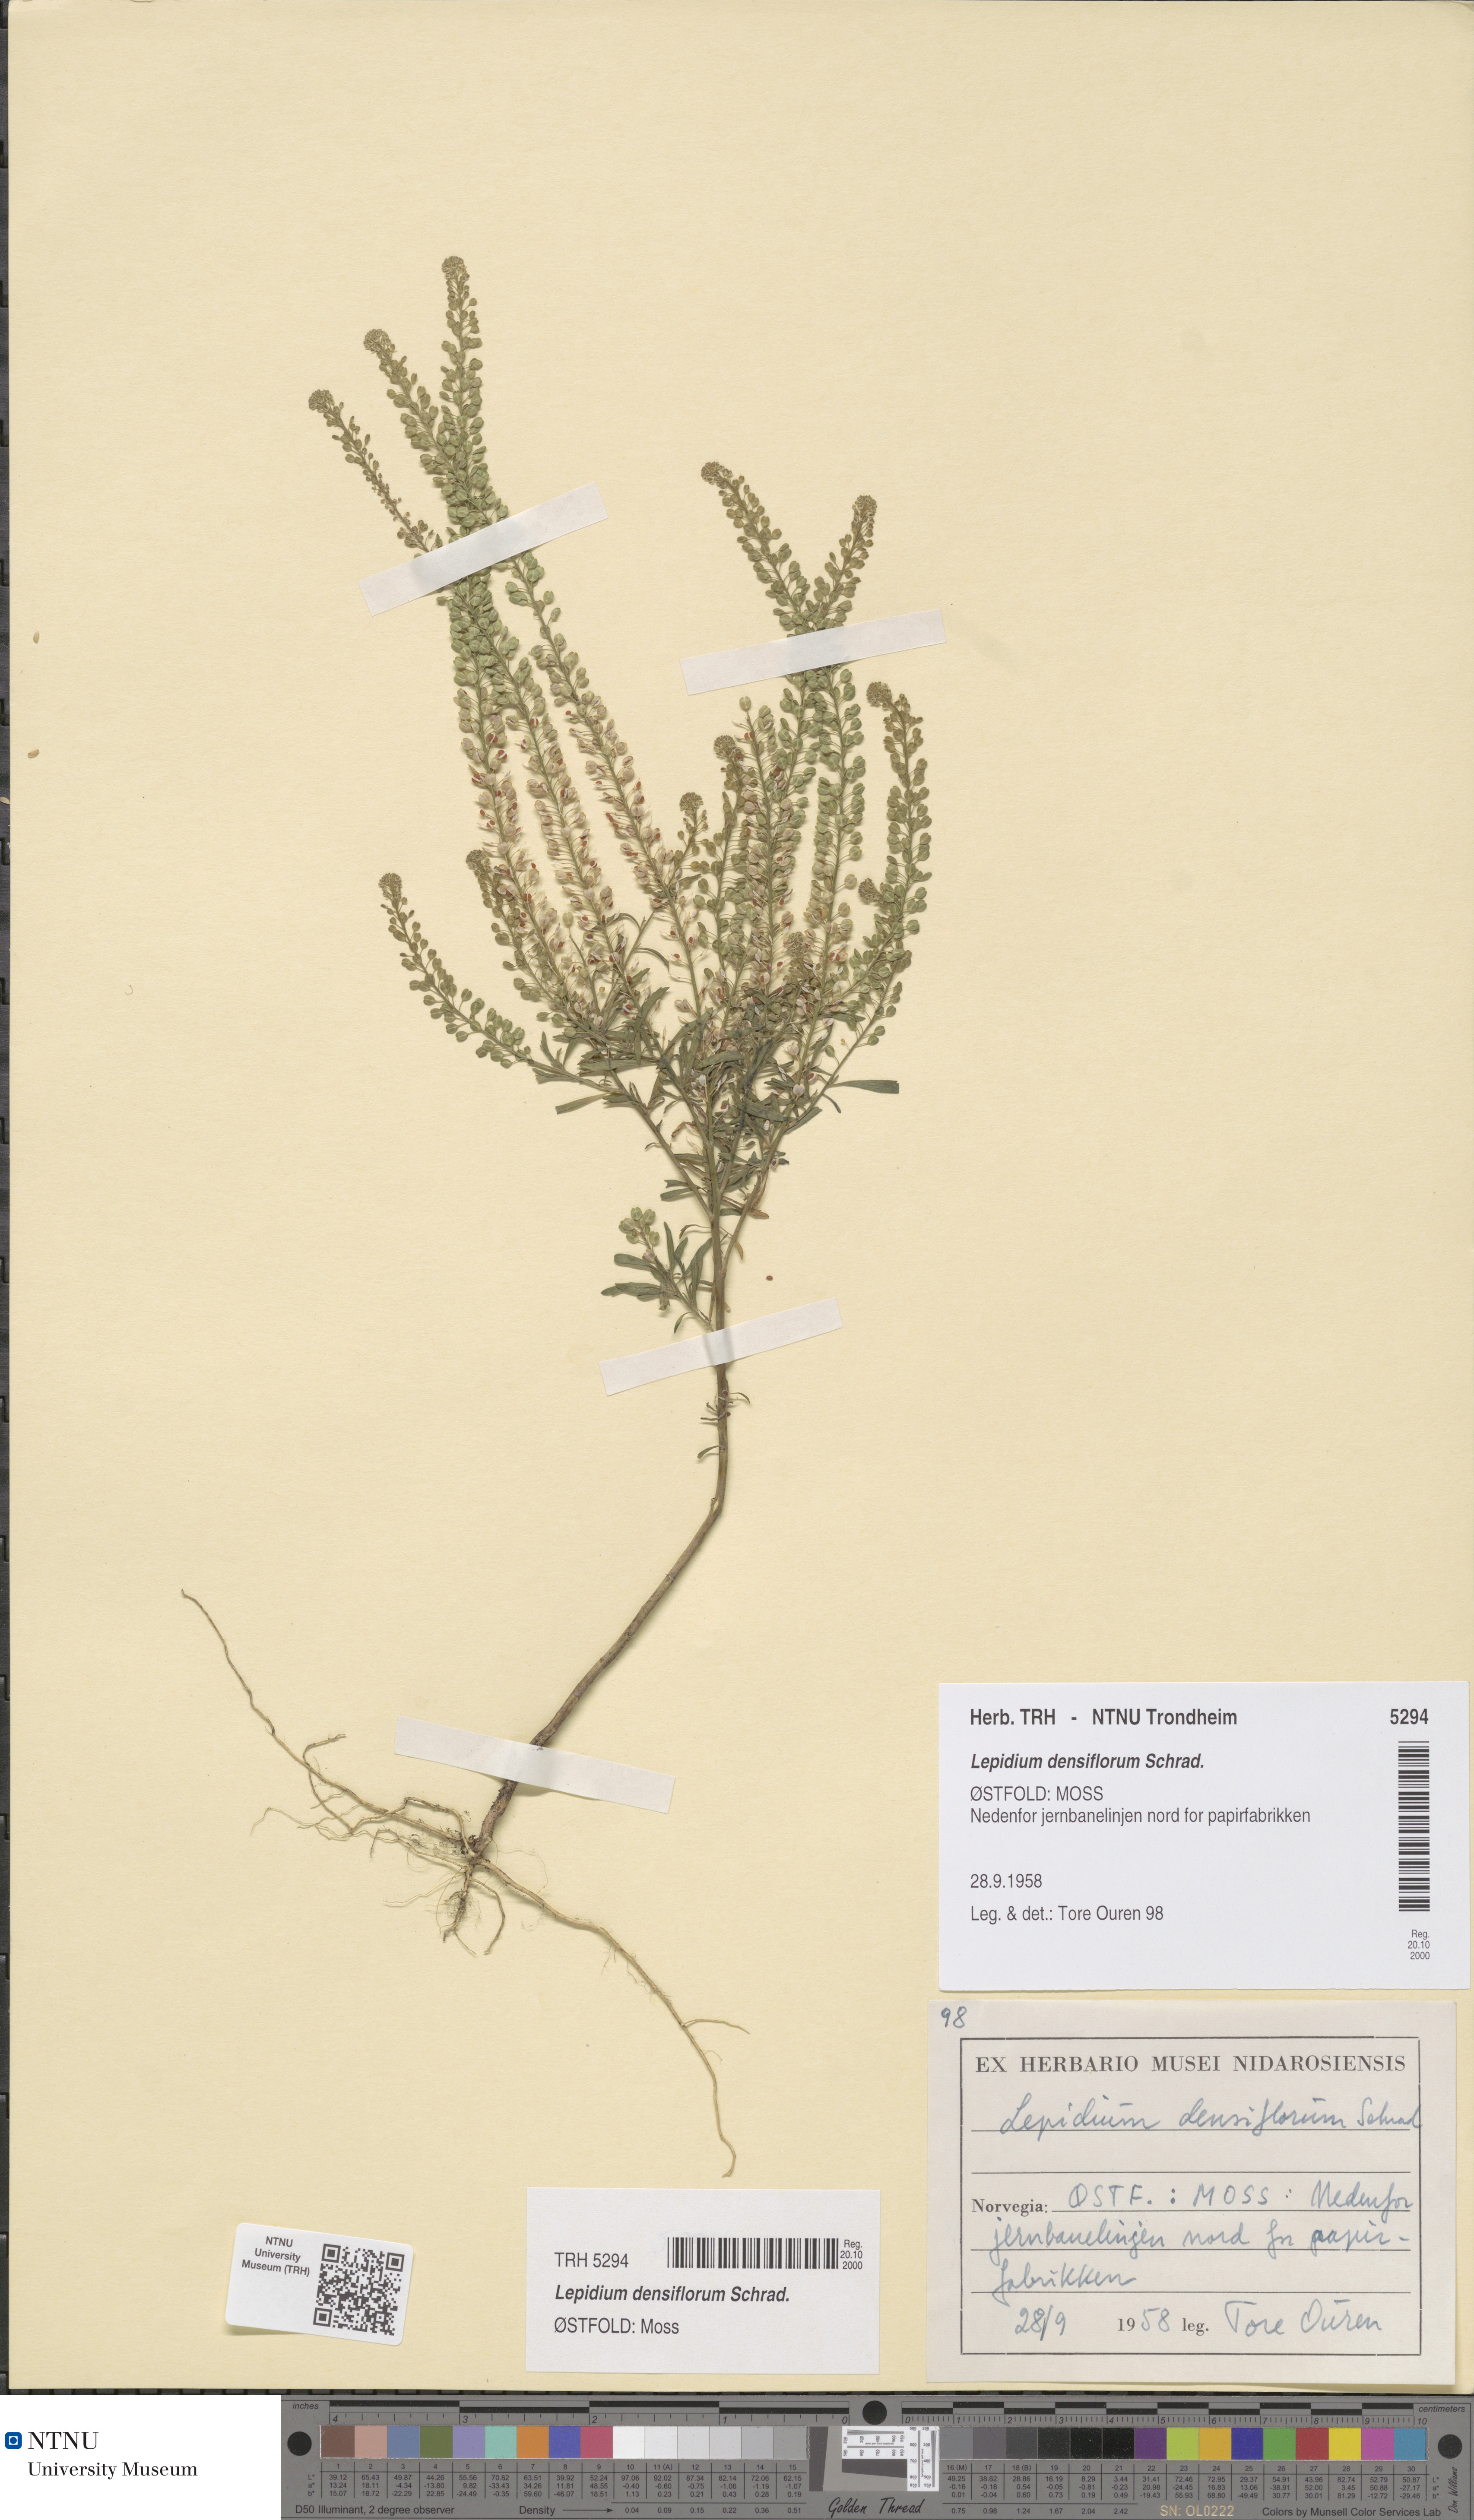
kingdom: Plantae
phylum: Tracheophyta
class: Magnoliopsida
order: Brassicales
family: Brassicaceae
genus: Lepidium
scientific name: Lepidium densiflorum
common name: Miner's pepperwort
